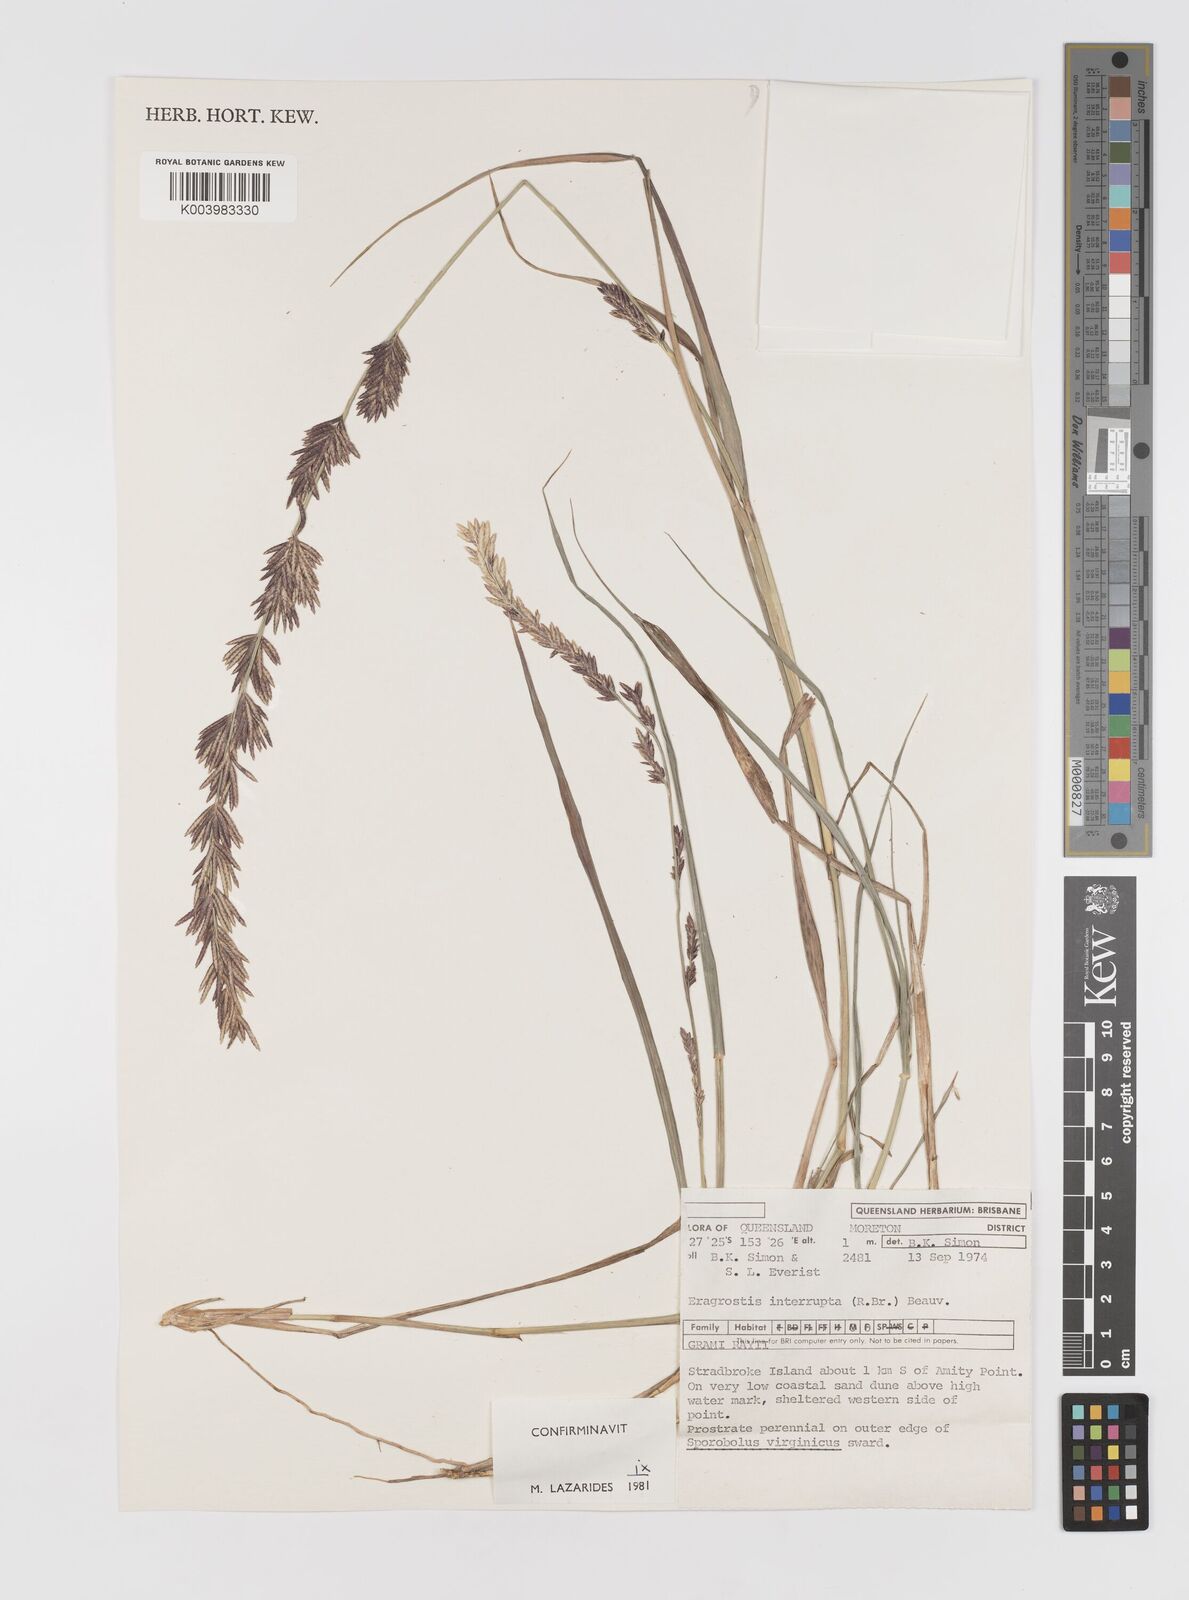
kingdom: Plantae
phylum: Tracheophyta
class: Liliopsida
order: Poales
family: Poaceae
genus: Eragrostis
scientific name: Eragrostis interrupta
